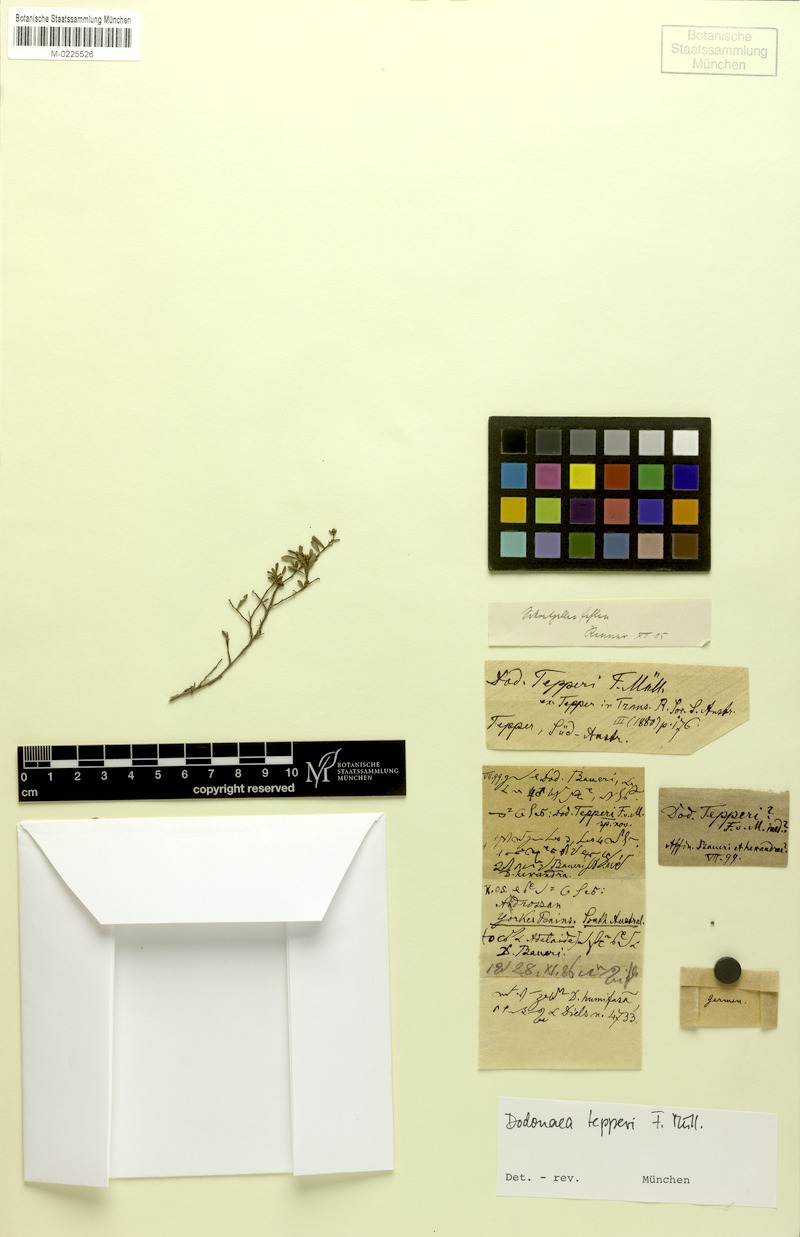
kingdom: Plantae
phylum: Tracheophyta
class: Magnoliopsida
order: Sapindales
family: Sapindaceae
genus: Dodonaea
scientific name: Dodonaea tepperi
